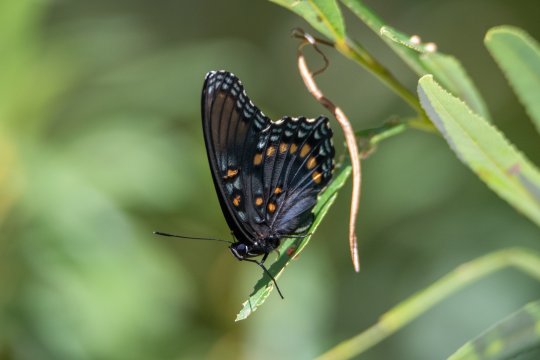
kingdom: Animalia
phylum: Arthropoda
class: Insecta
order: Lepidoptera
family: Nymphalidae
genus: Limenitis
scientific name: Limenitis arthemis
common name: Red-spotted Admiral
